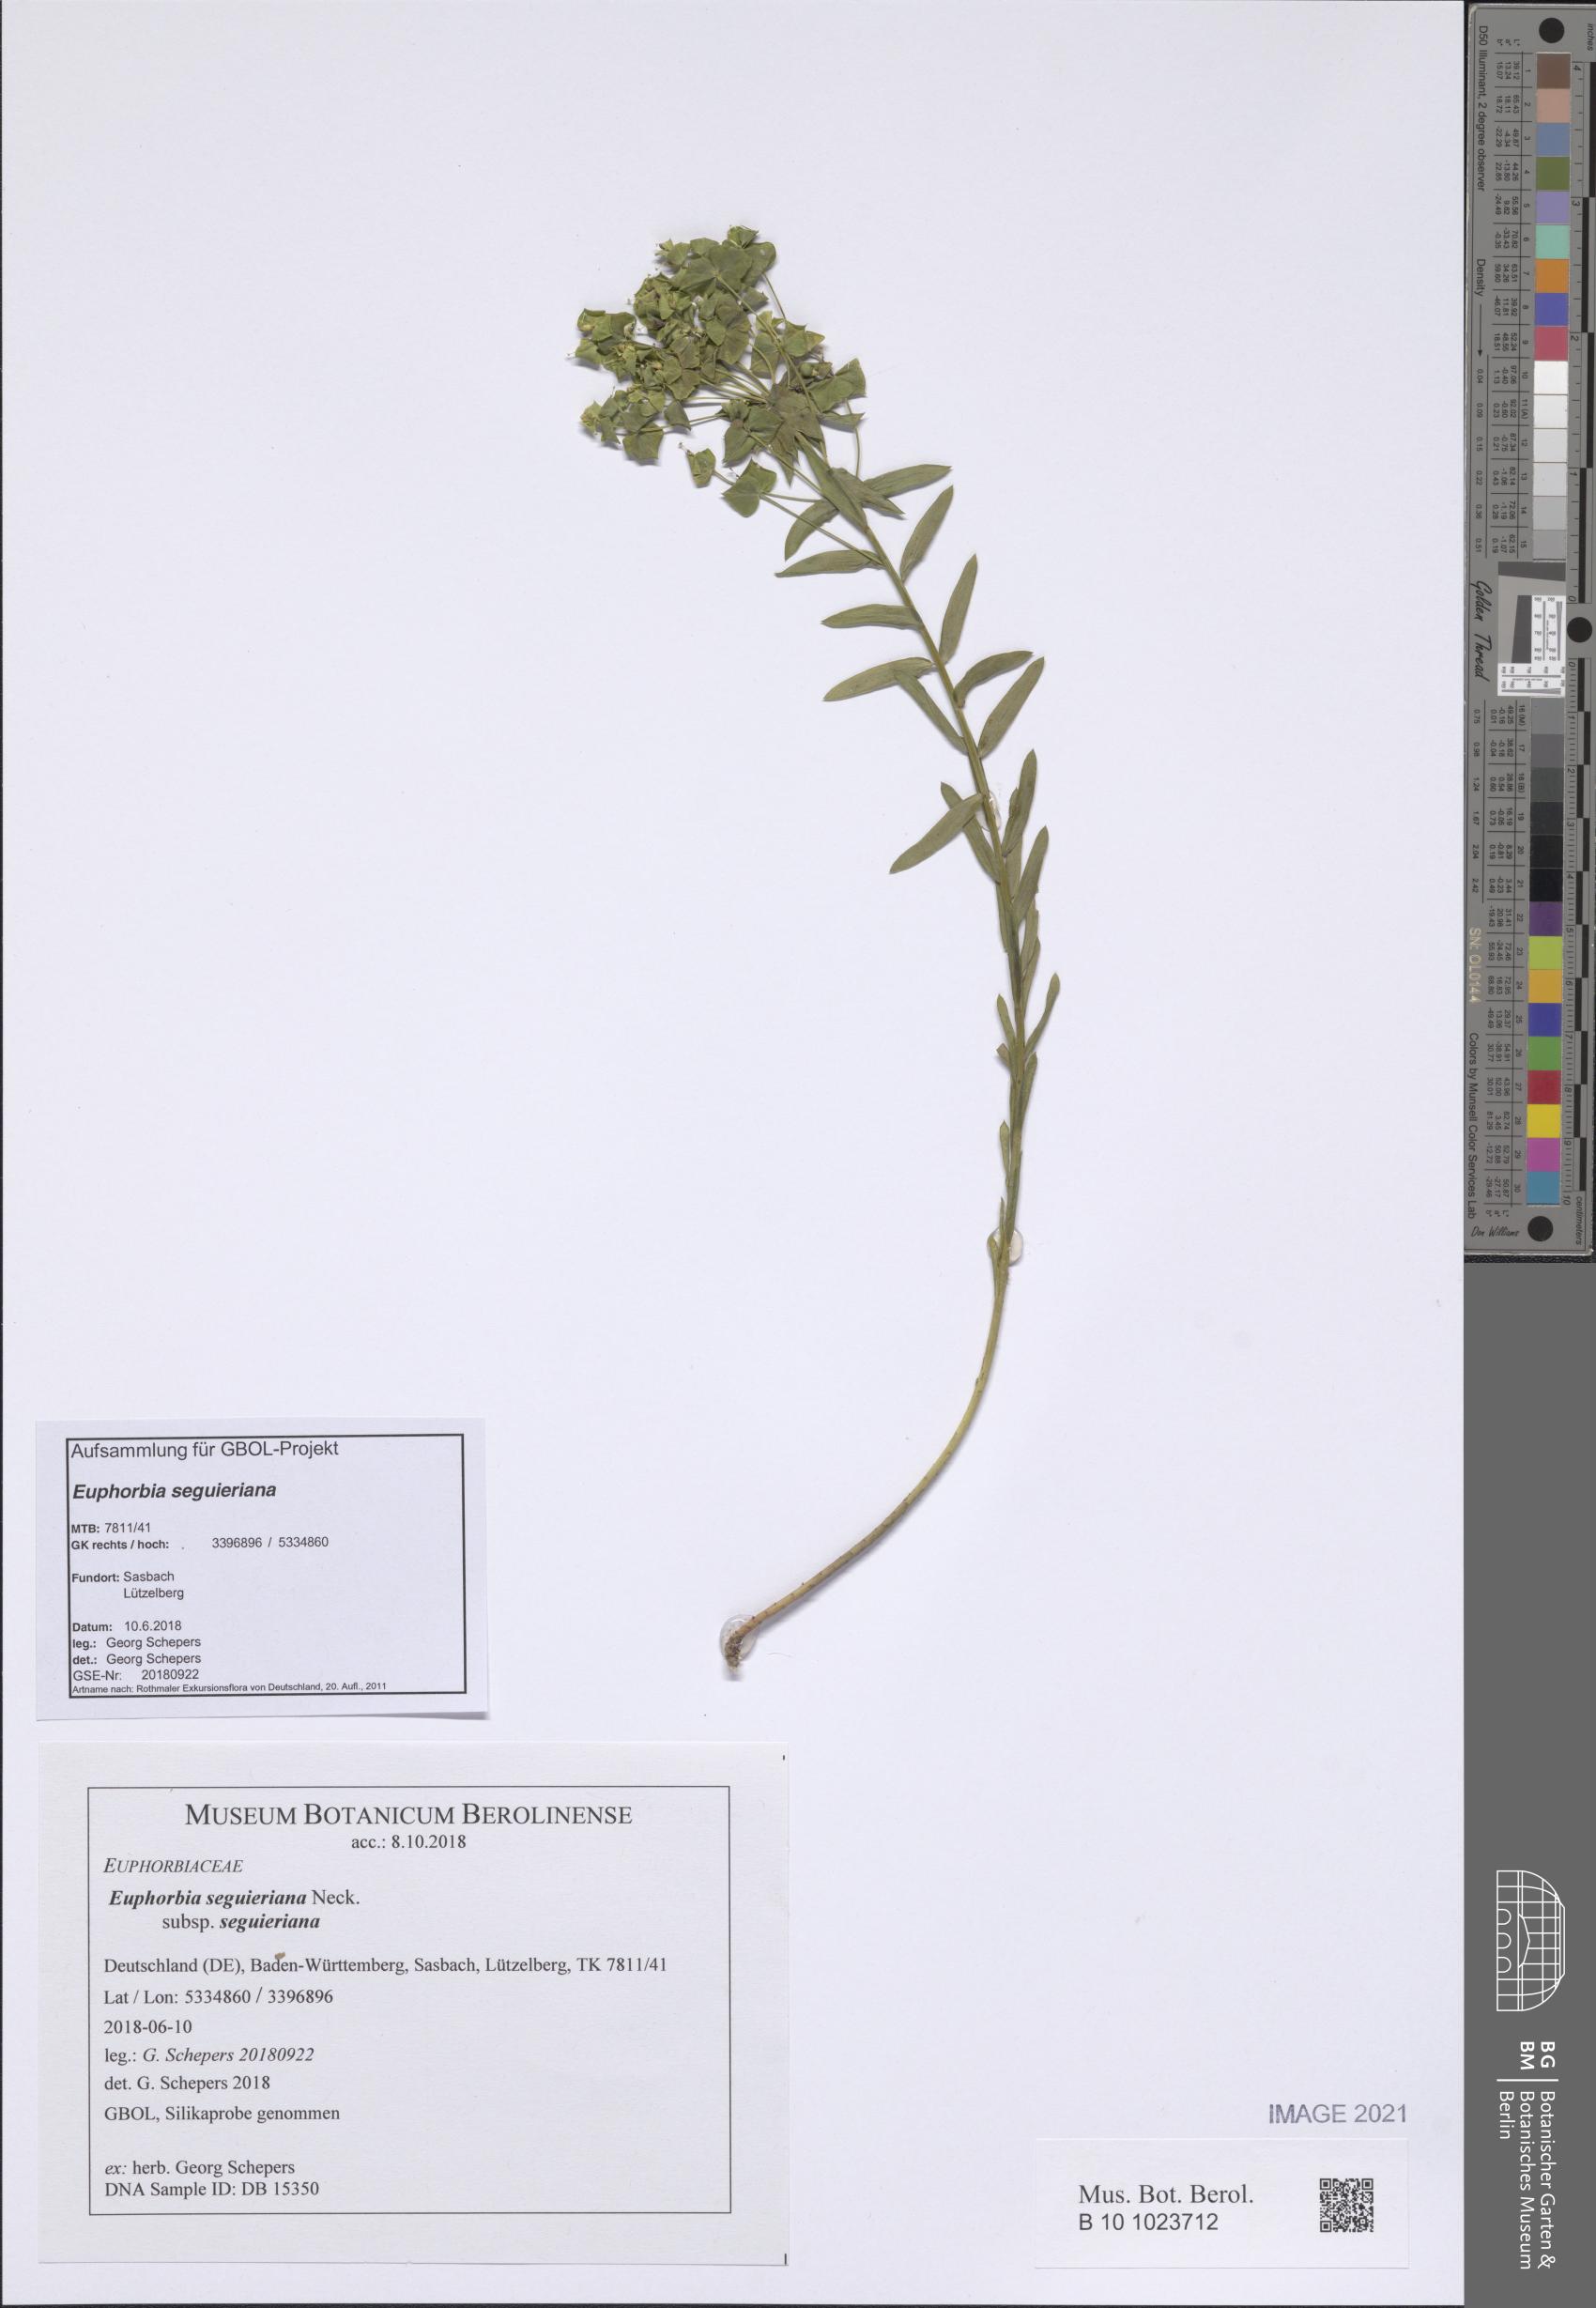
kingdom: Plantae
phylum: Tracheophyta
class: Magnoliopsida
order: Malpighiales
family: Euphorbiaceae
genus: Euphorbia
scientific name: Euphorbia seguieriana
